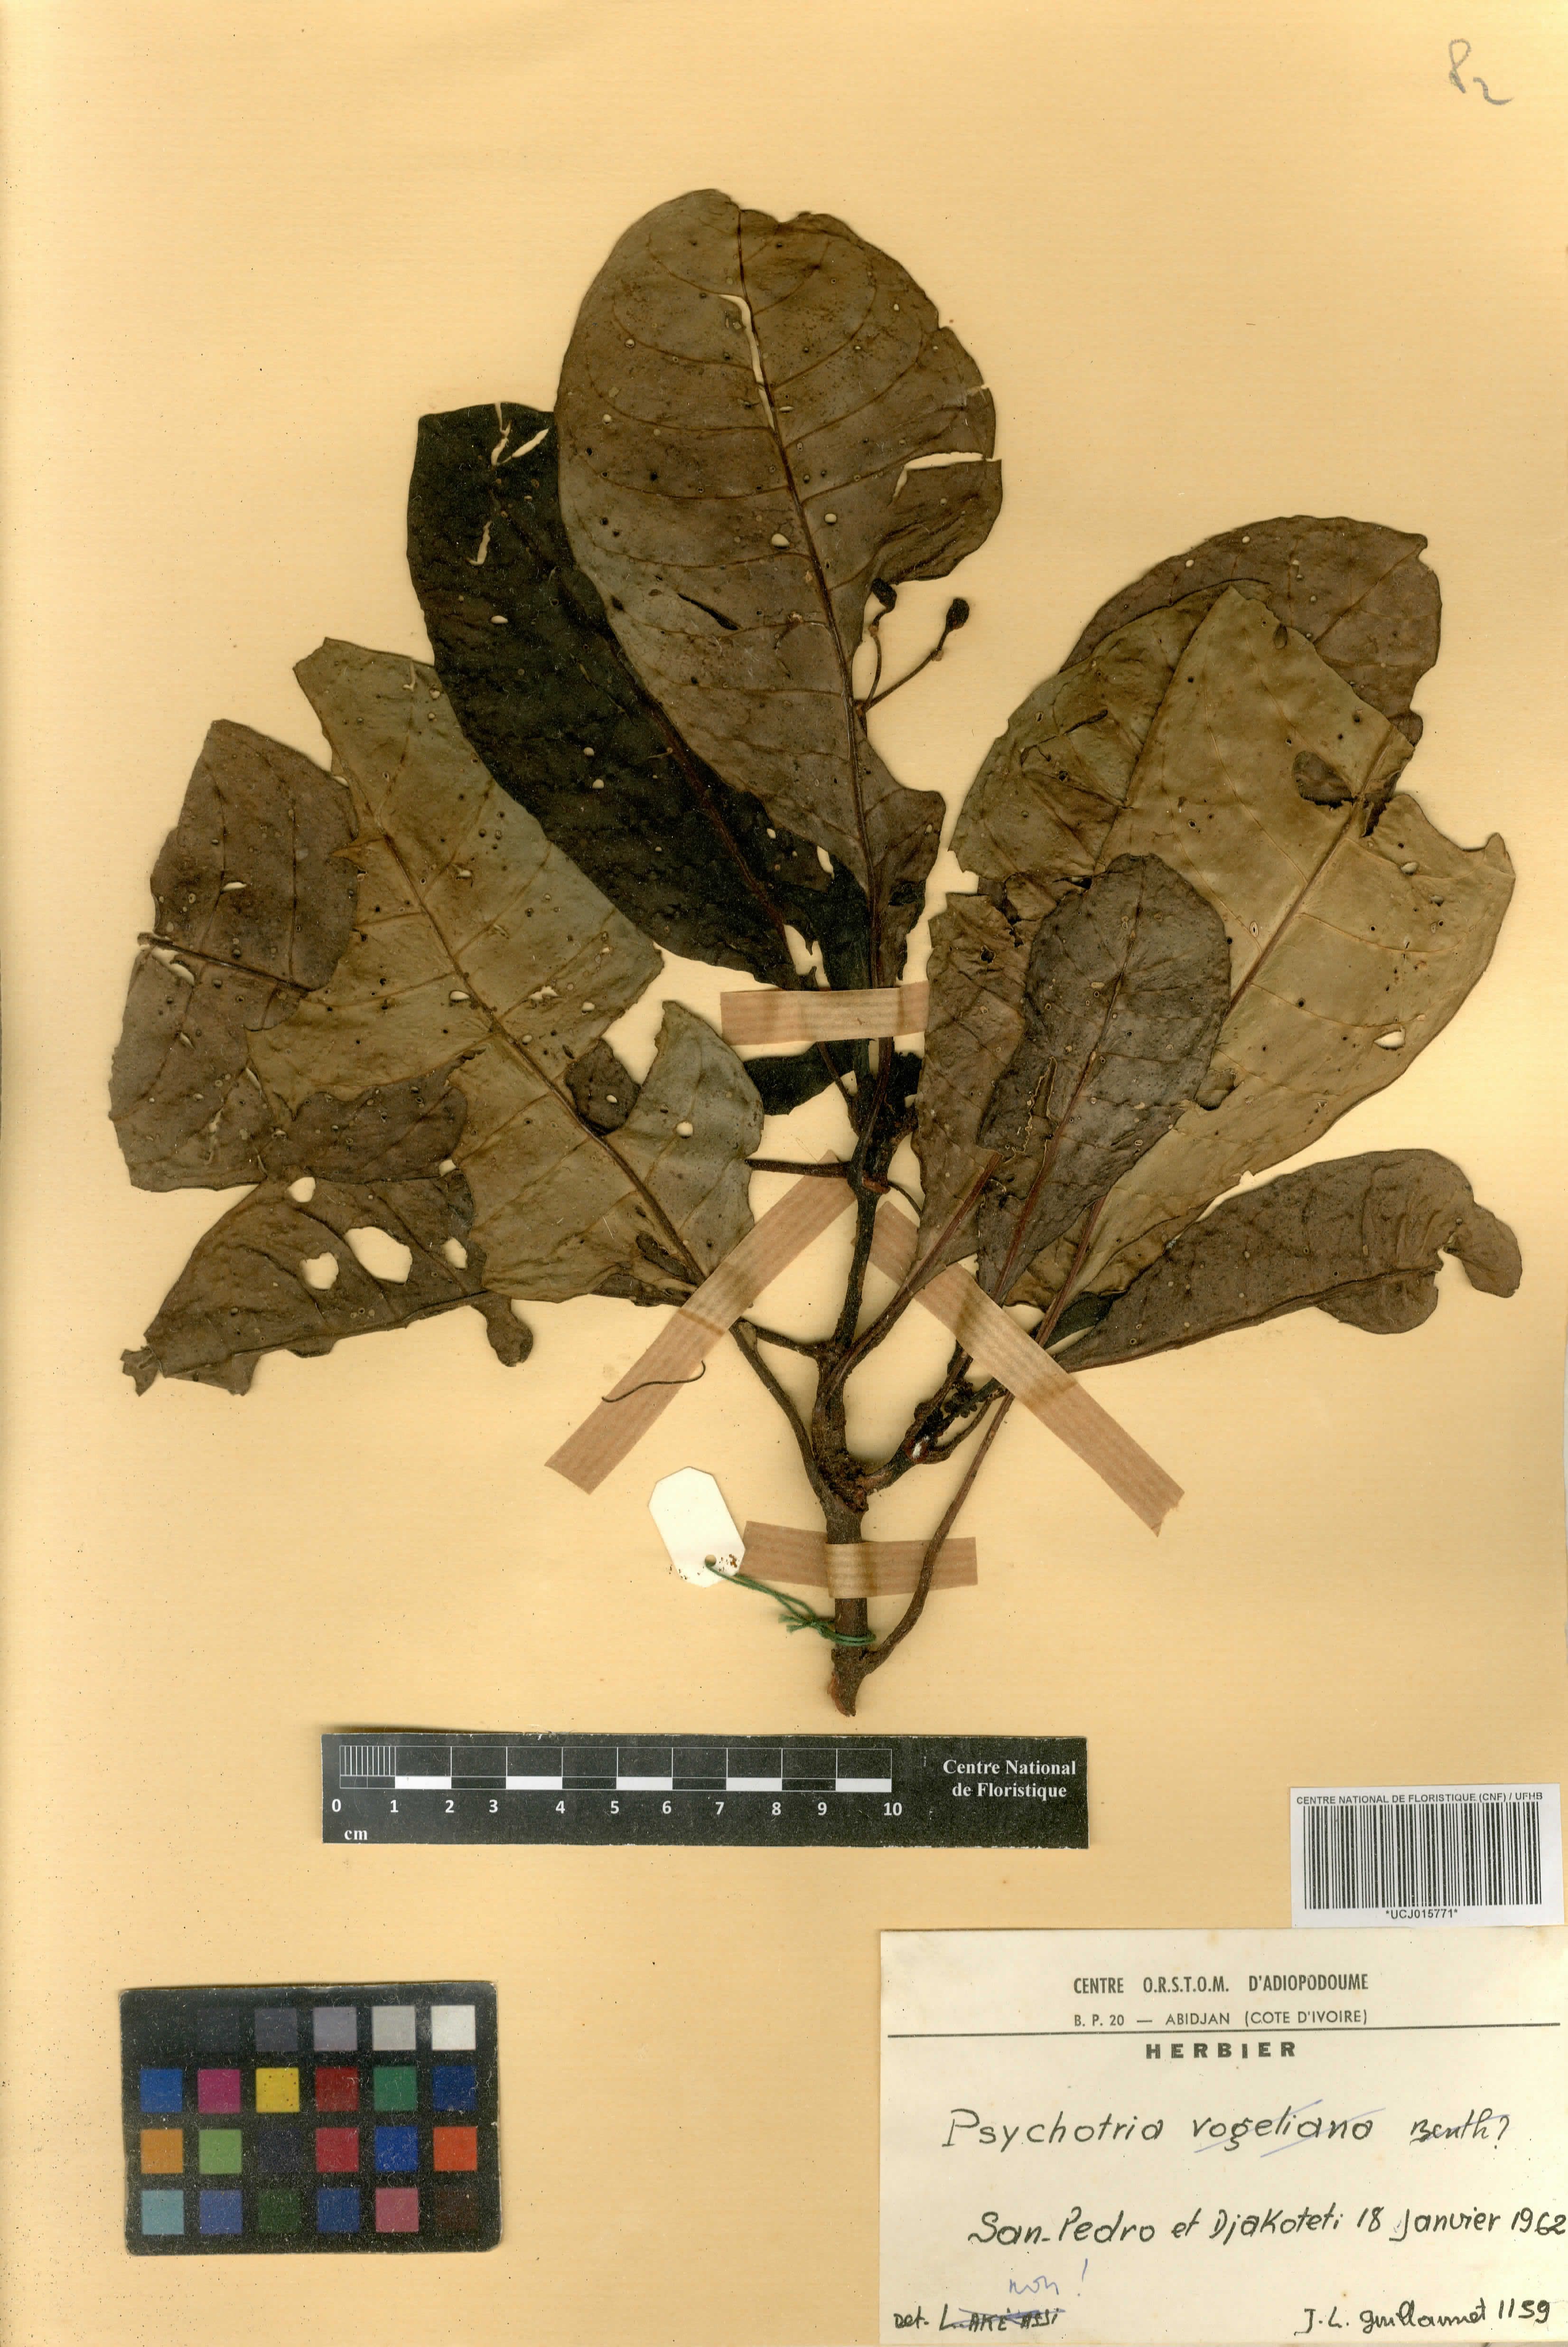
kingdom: Plantae
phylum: Tracheophyta
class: Magnoliopsida
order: Gentianales
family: Rubiaceae
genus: Psychotria
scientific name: Psychotria
